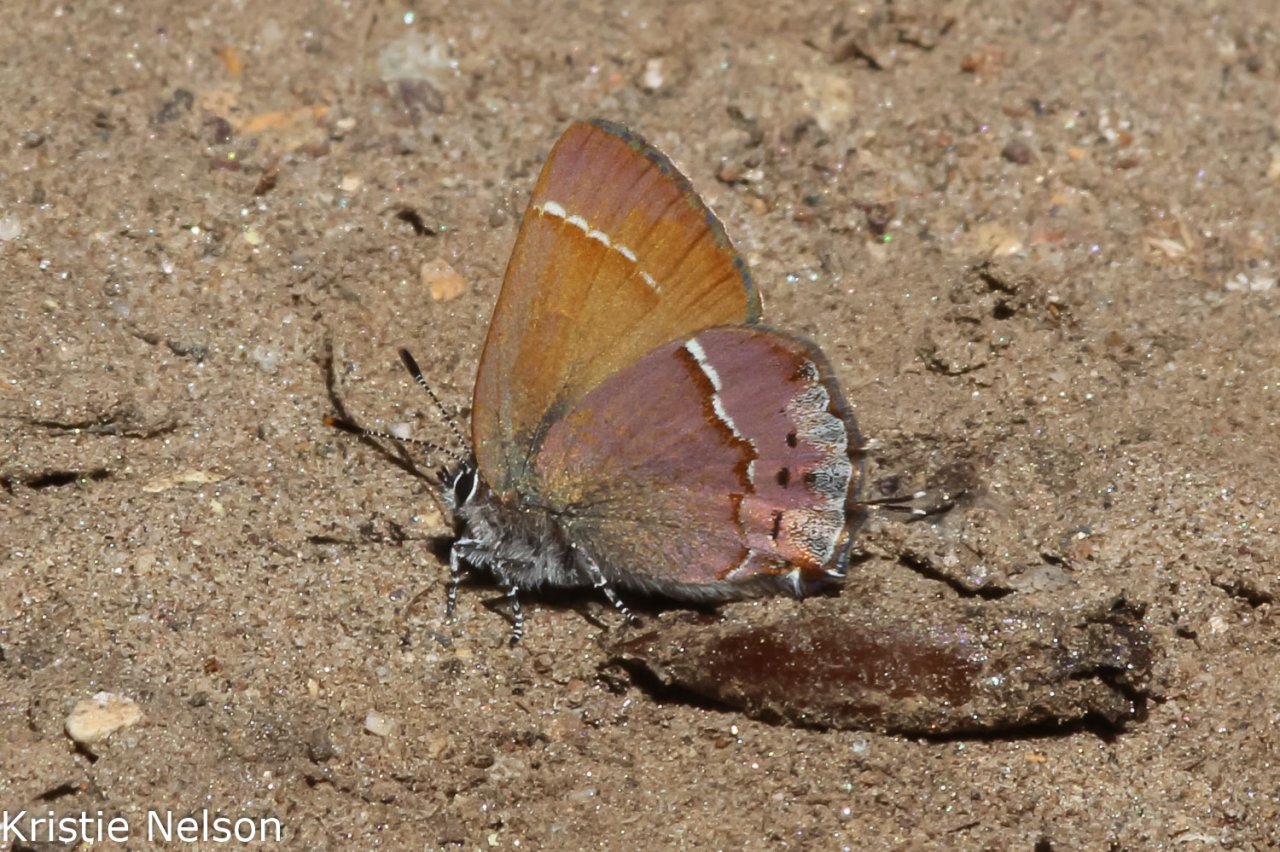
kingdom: Animalia
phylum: Arthropoda
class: Insecta
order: Lepidoptera
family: Lycaenidae
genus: Mitoura
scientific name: Mitoura nelsoni
